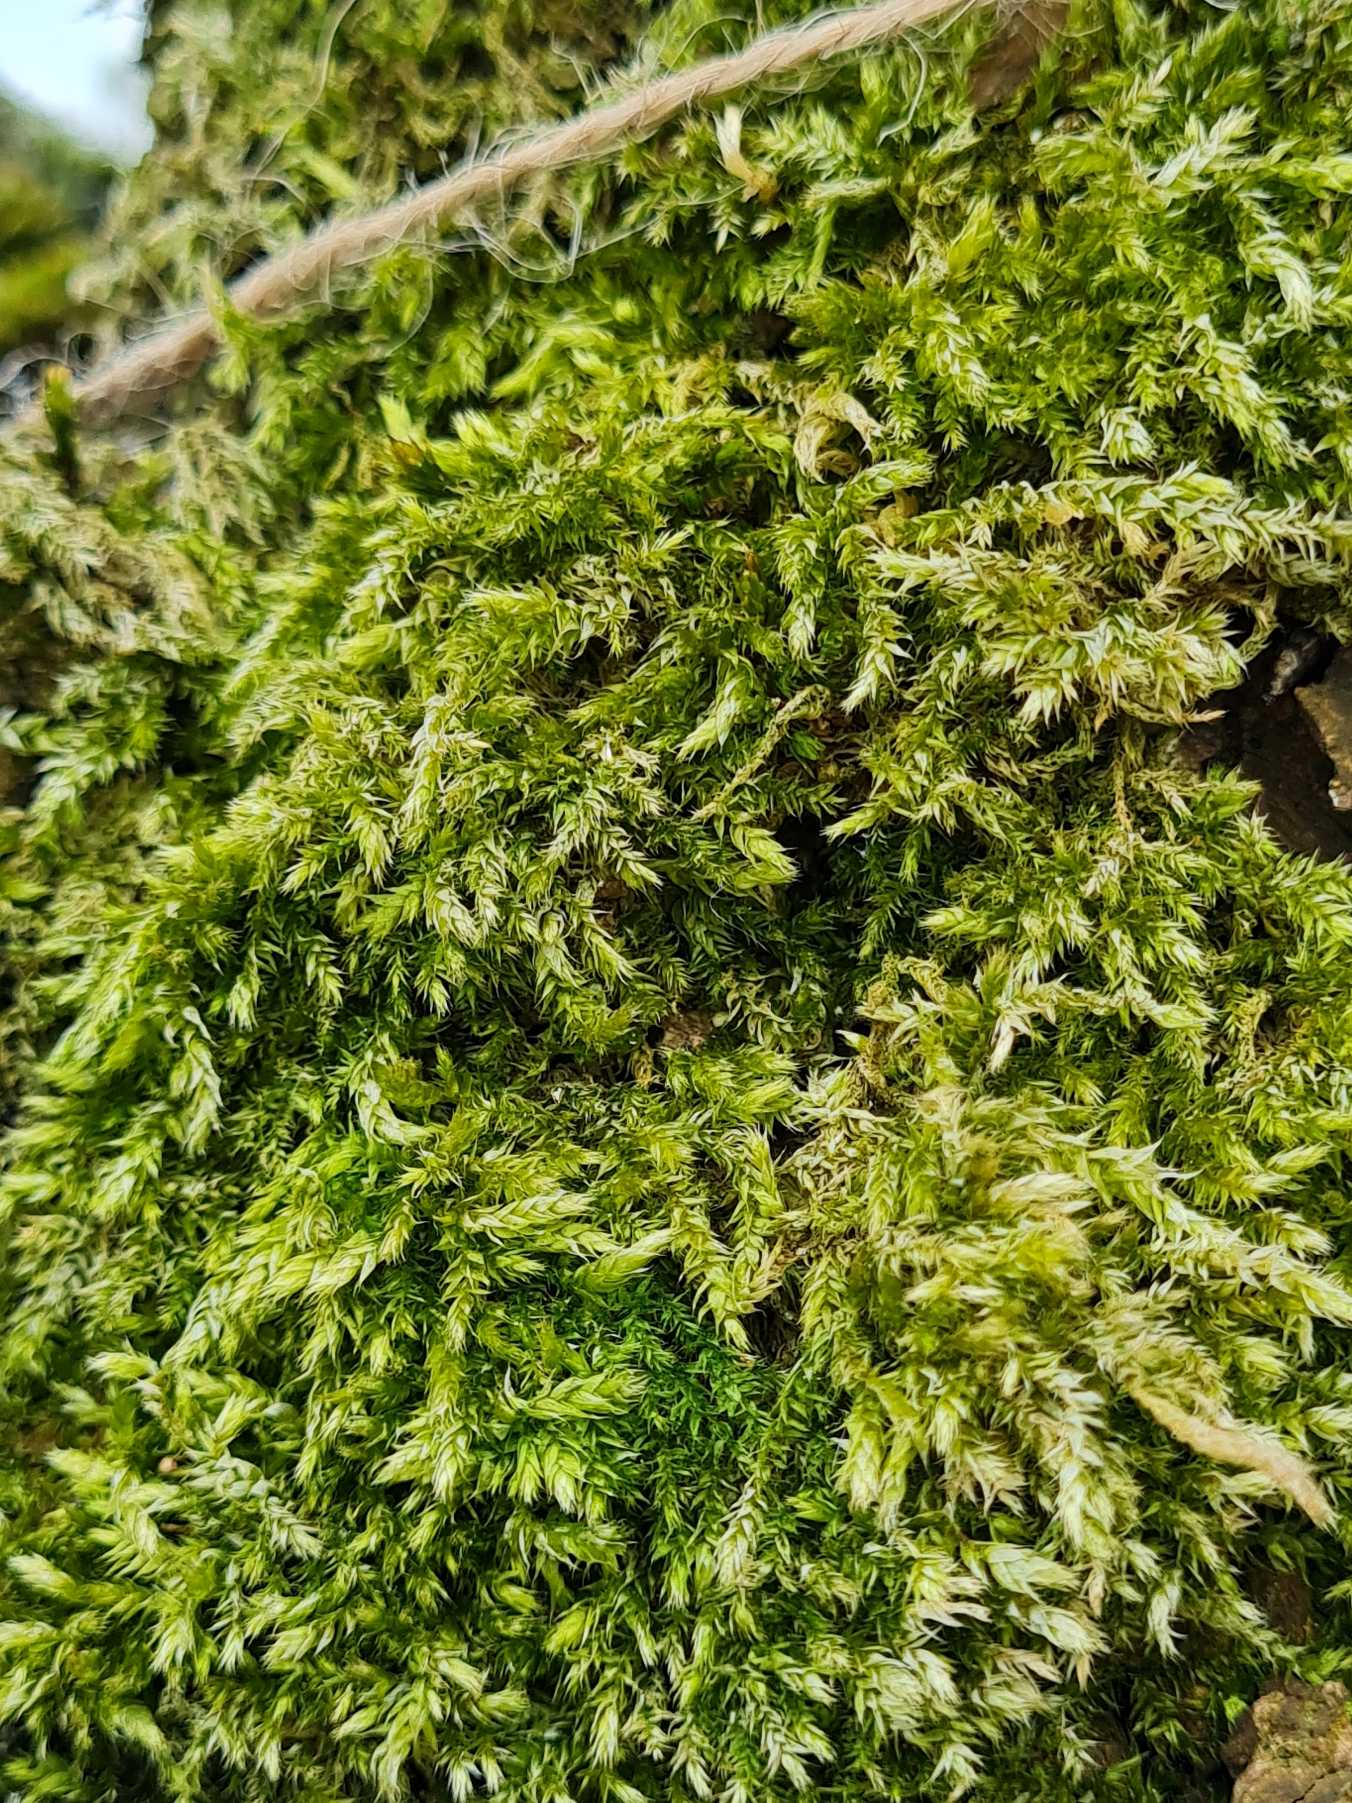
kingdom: Plantae
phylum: Bryophyta
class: Bryopsida
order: Hypnales
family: Brachytheciaceae
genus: Brachythecium
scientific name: Brachythecium rutabulum
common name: Almindelig kortkapsel
